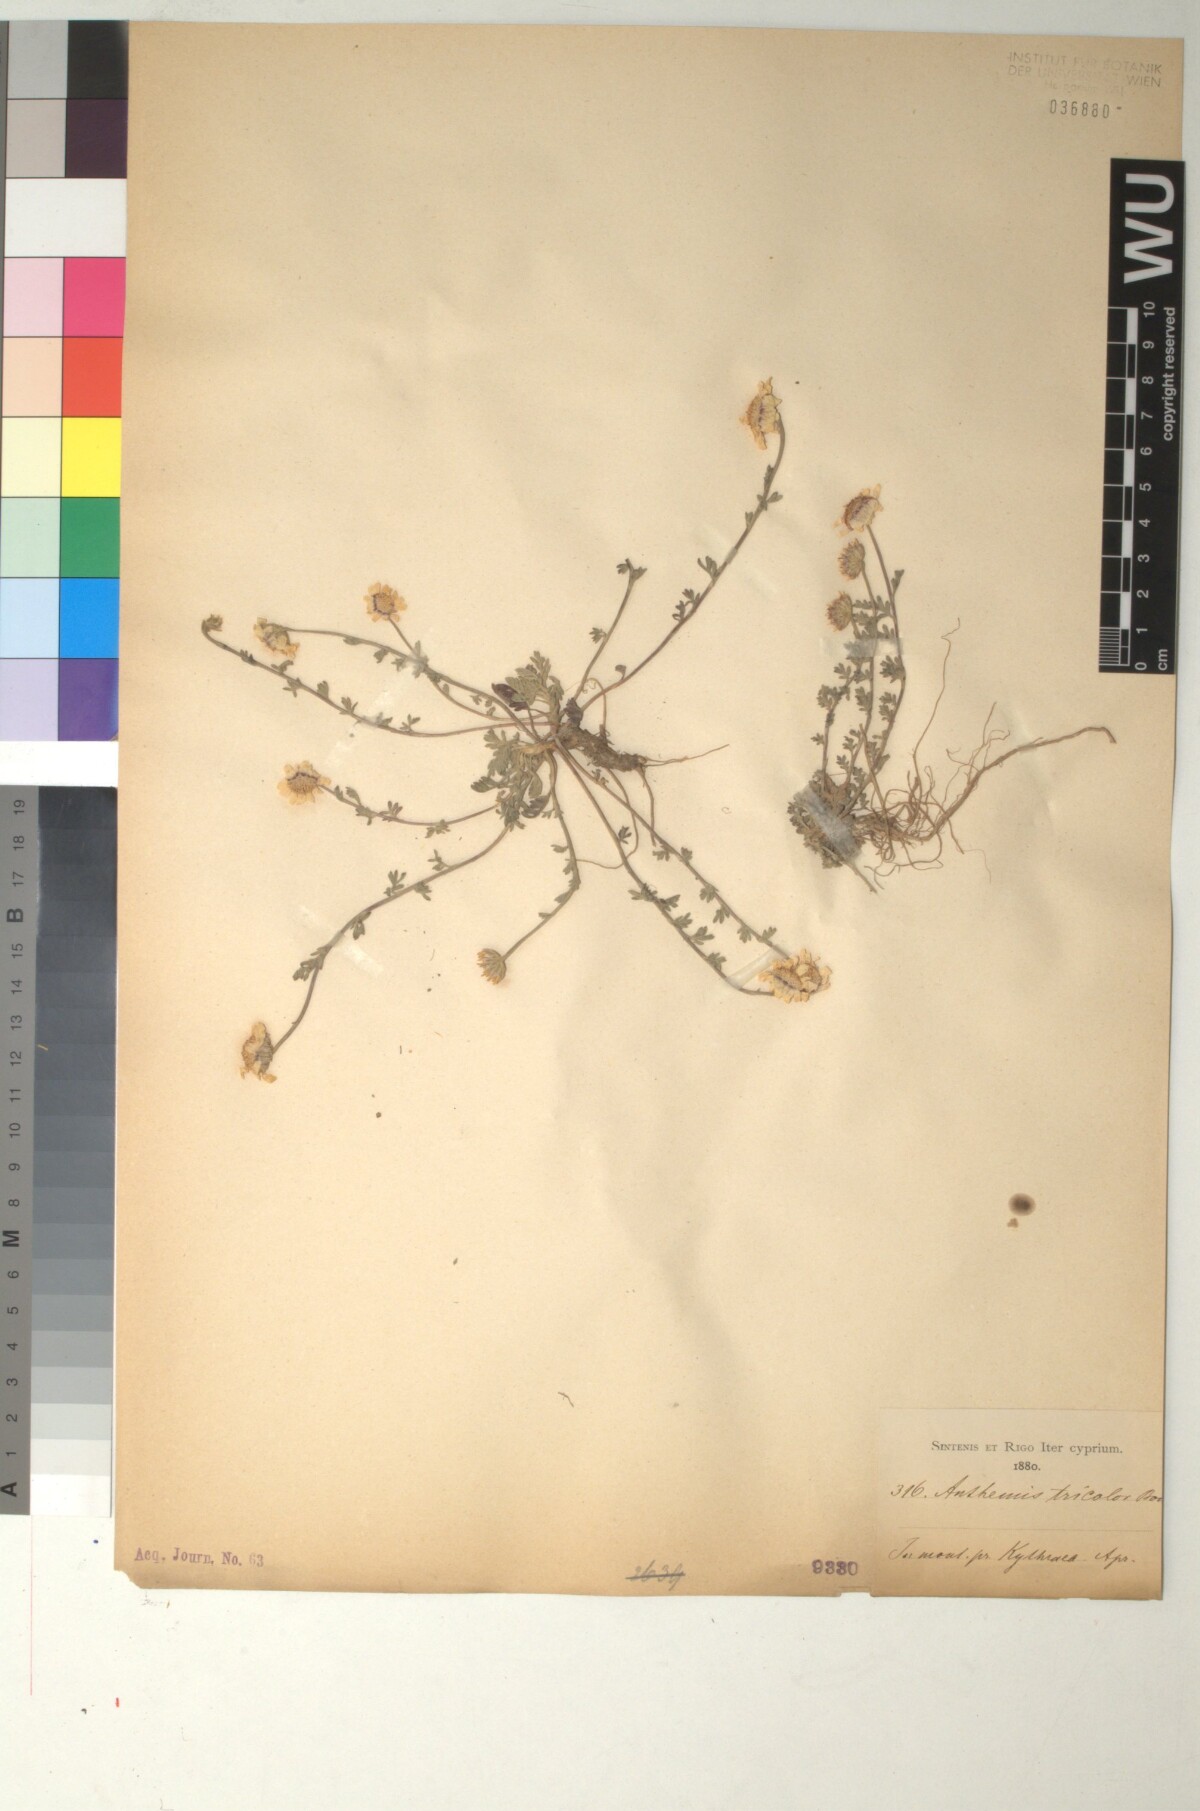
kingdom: Plantae
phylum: Tracheophyta
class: Magnoliopsida
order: Asterales
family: Asteraceae
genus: Anthemis
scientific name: Anthemis tricolor
